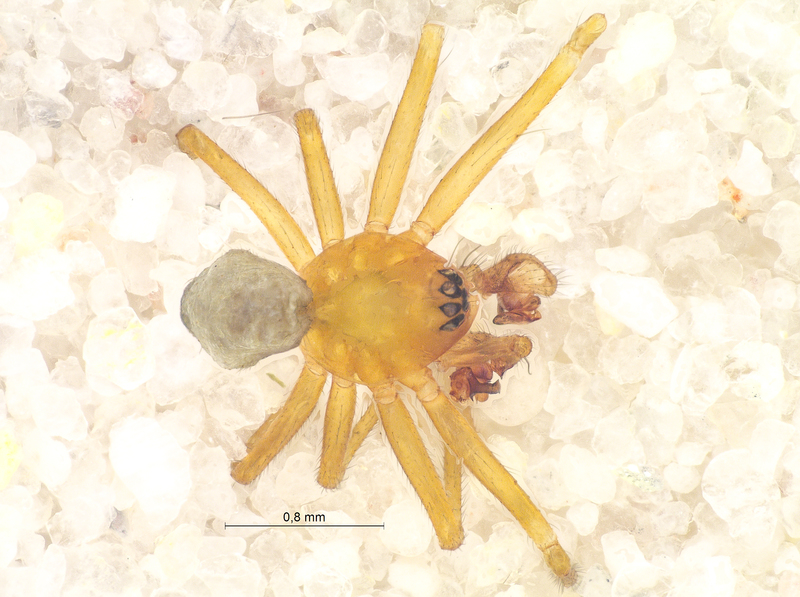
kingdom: Animalia
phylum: Arthropoda
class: Arachnida
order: Araneae
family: Linyphiidae
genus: Palliduphantes
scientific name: Palliduphantes pallidus
